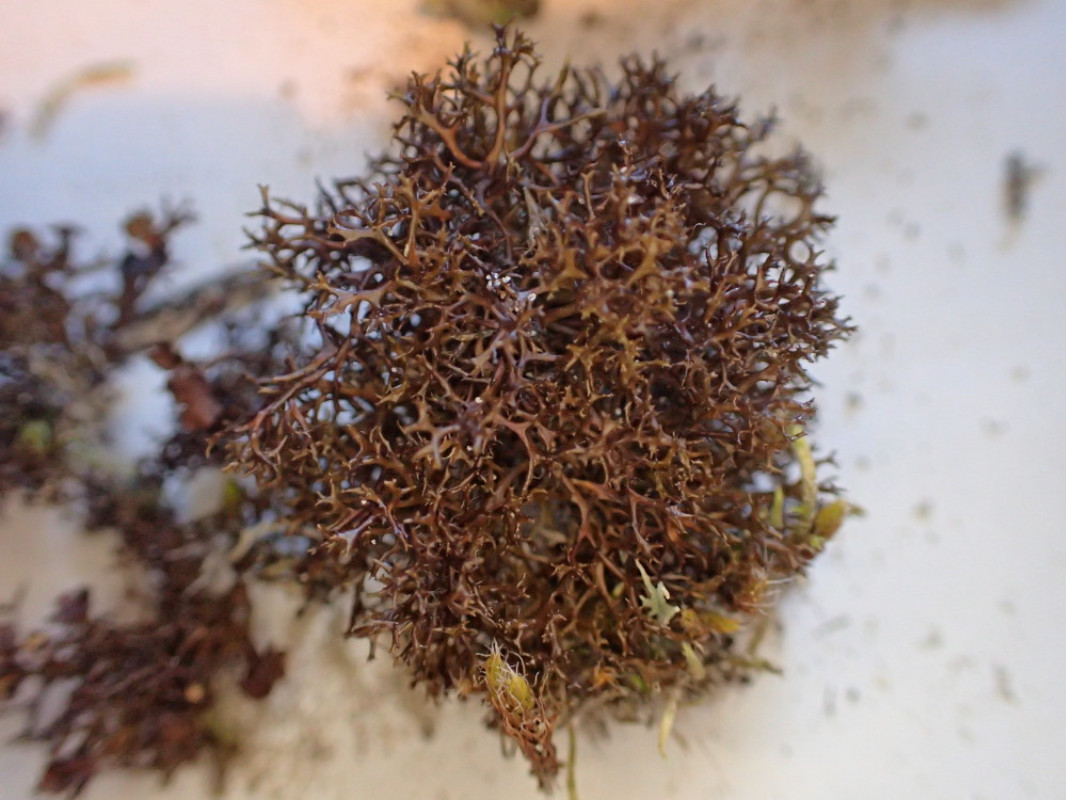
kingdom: Fungi
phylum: Ascomycota
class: Lecanoromycetes
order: Lecanorales
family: Parmeliaceae
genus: Cetraria
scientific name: Cetraria muricata
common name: tue-tjørnelav
